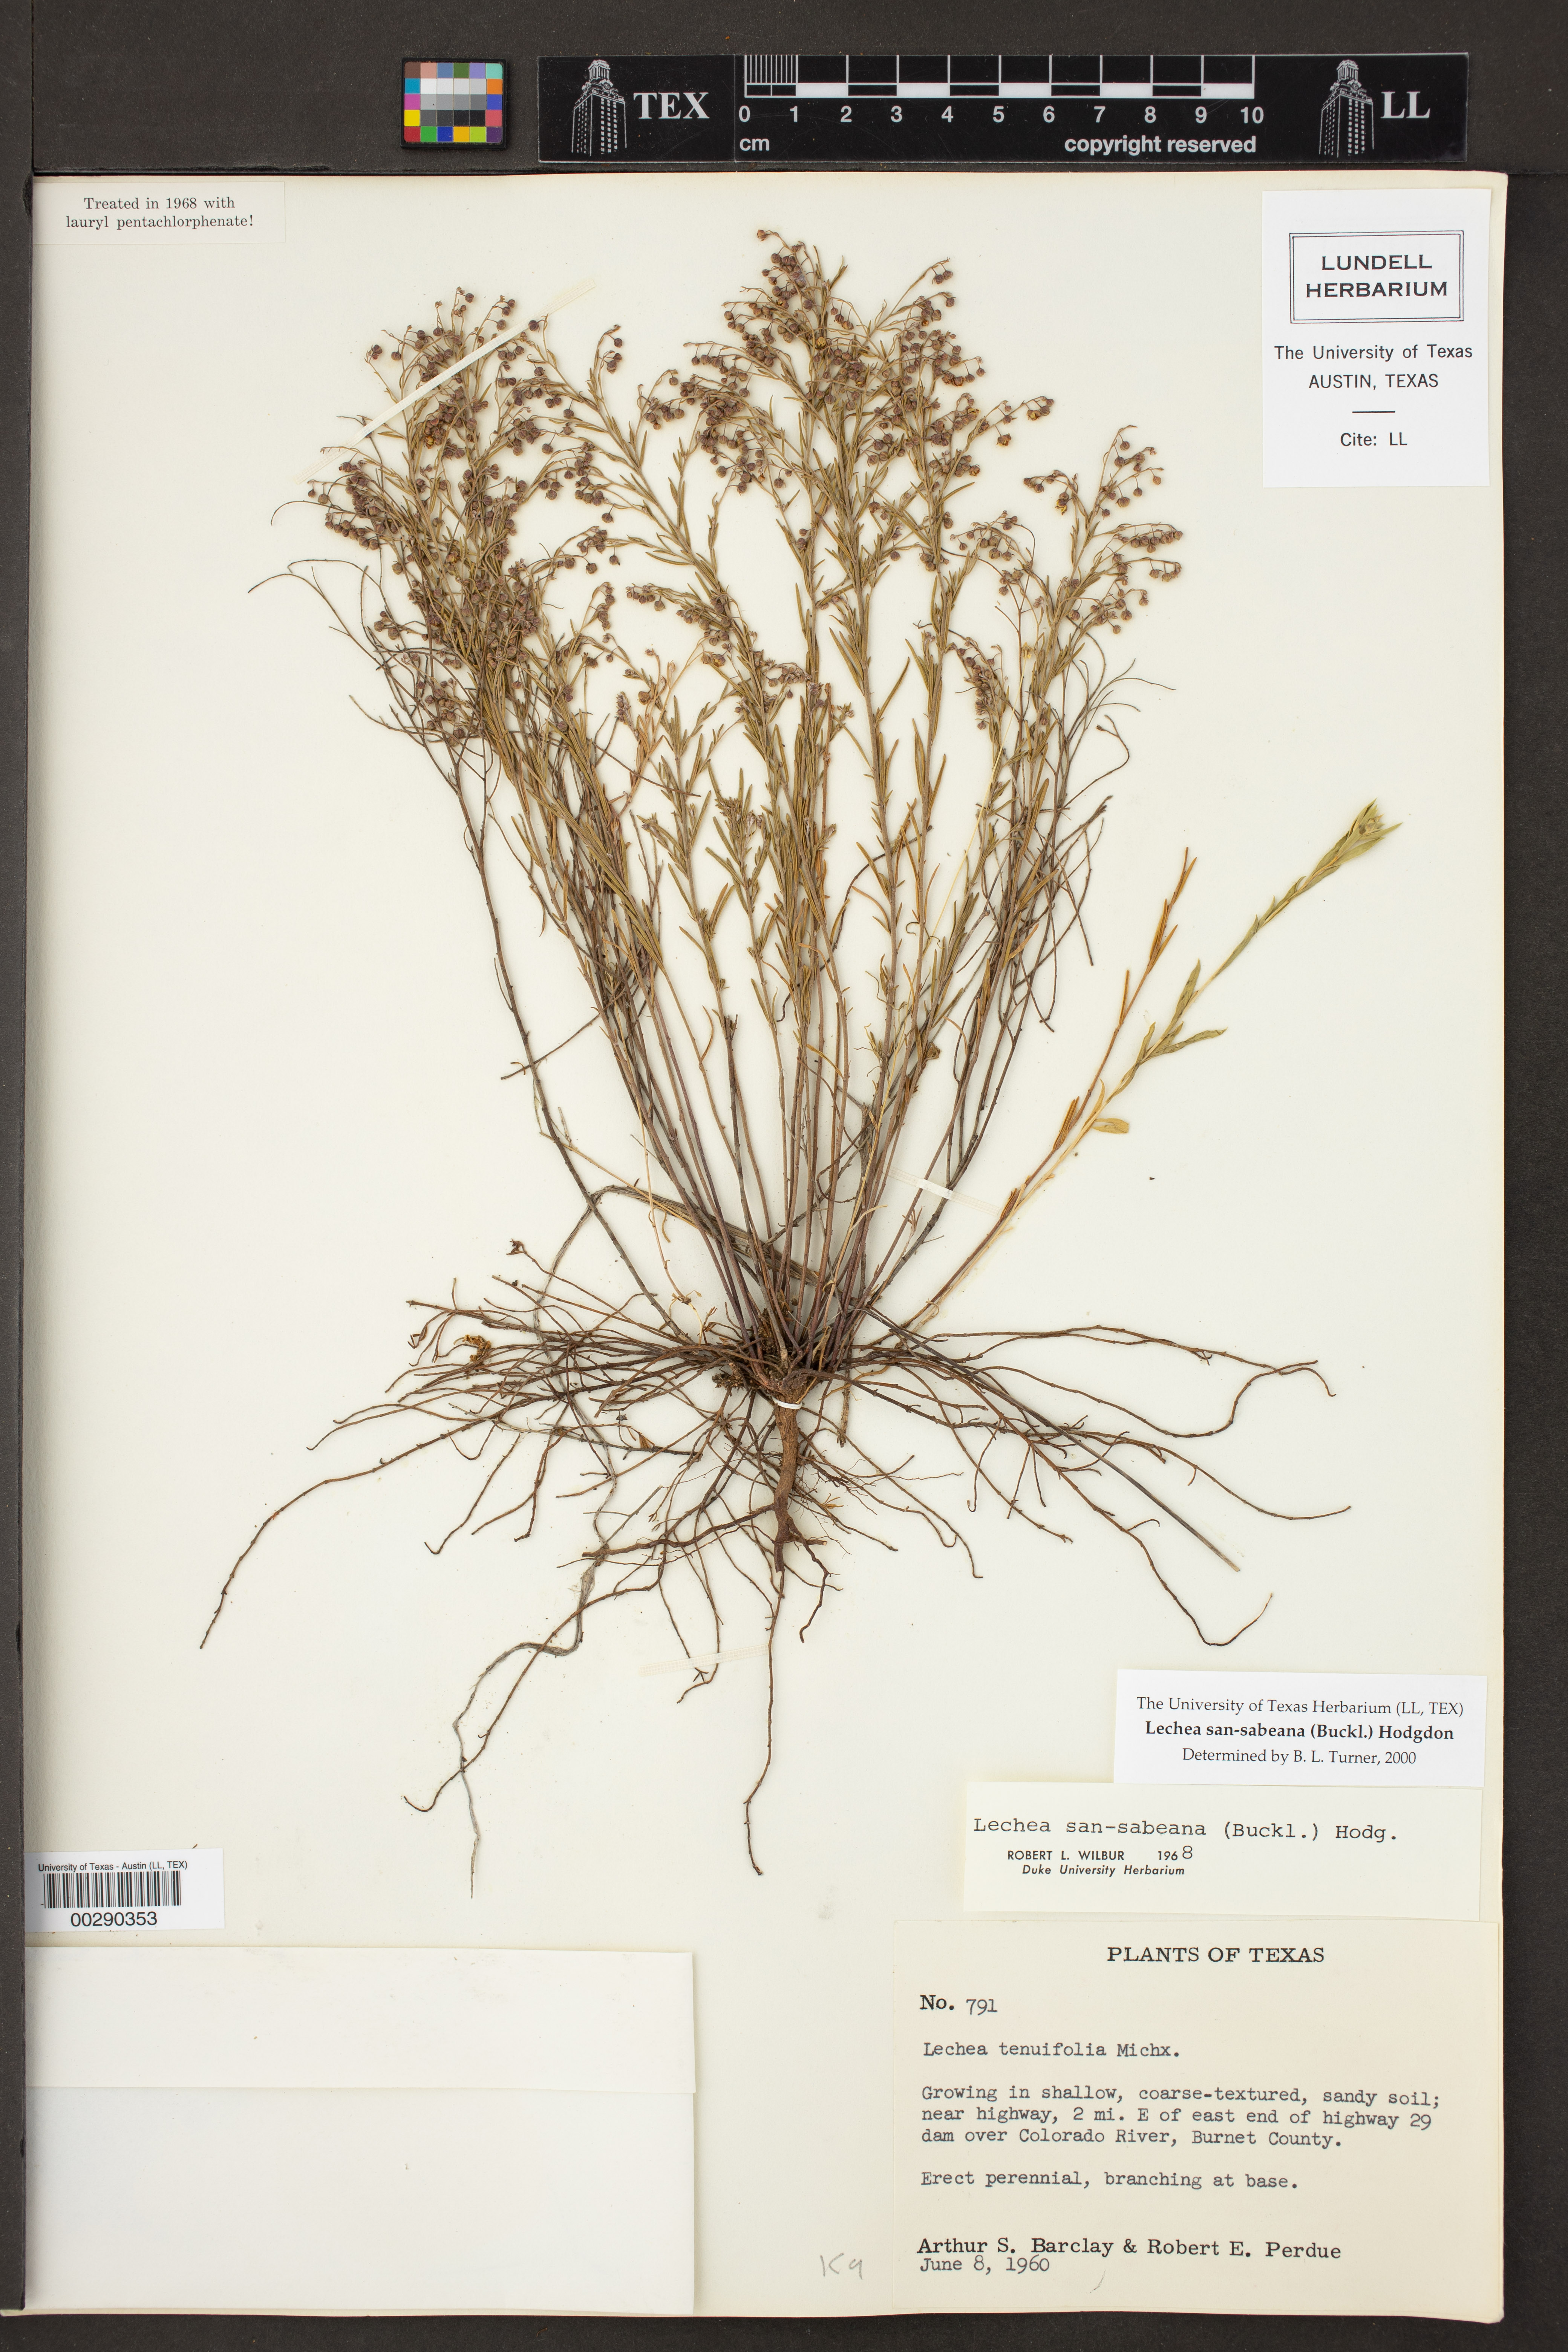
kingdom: Plantae
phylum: Tracheophyta
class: Magnoliopsida
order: Malvales
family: Cistaceae
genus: Lechea
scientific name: Lechea san-sabeana
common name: San saba pinweed
